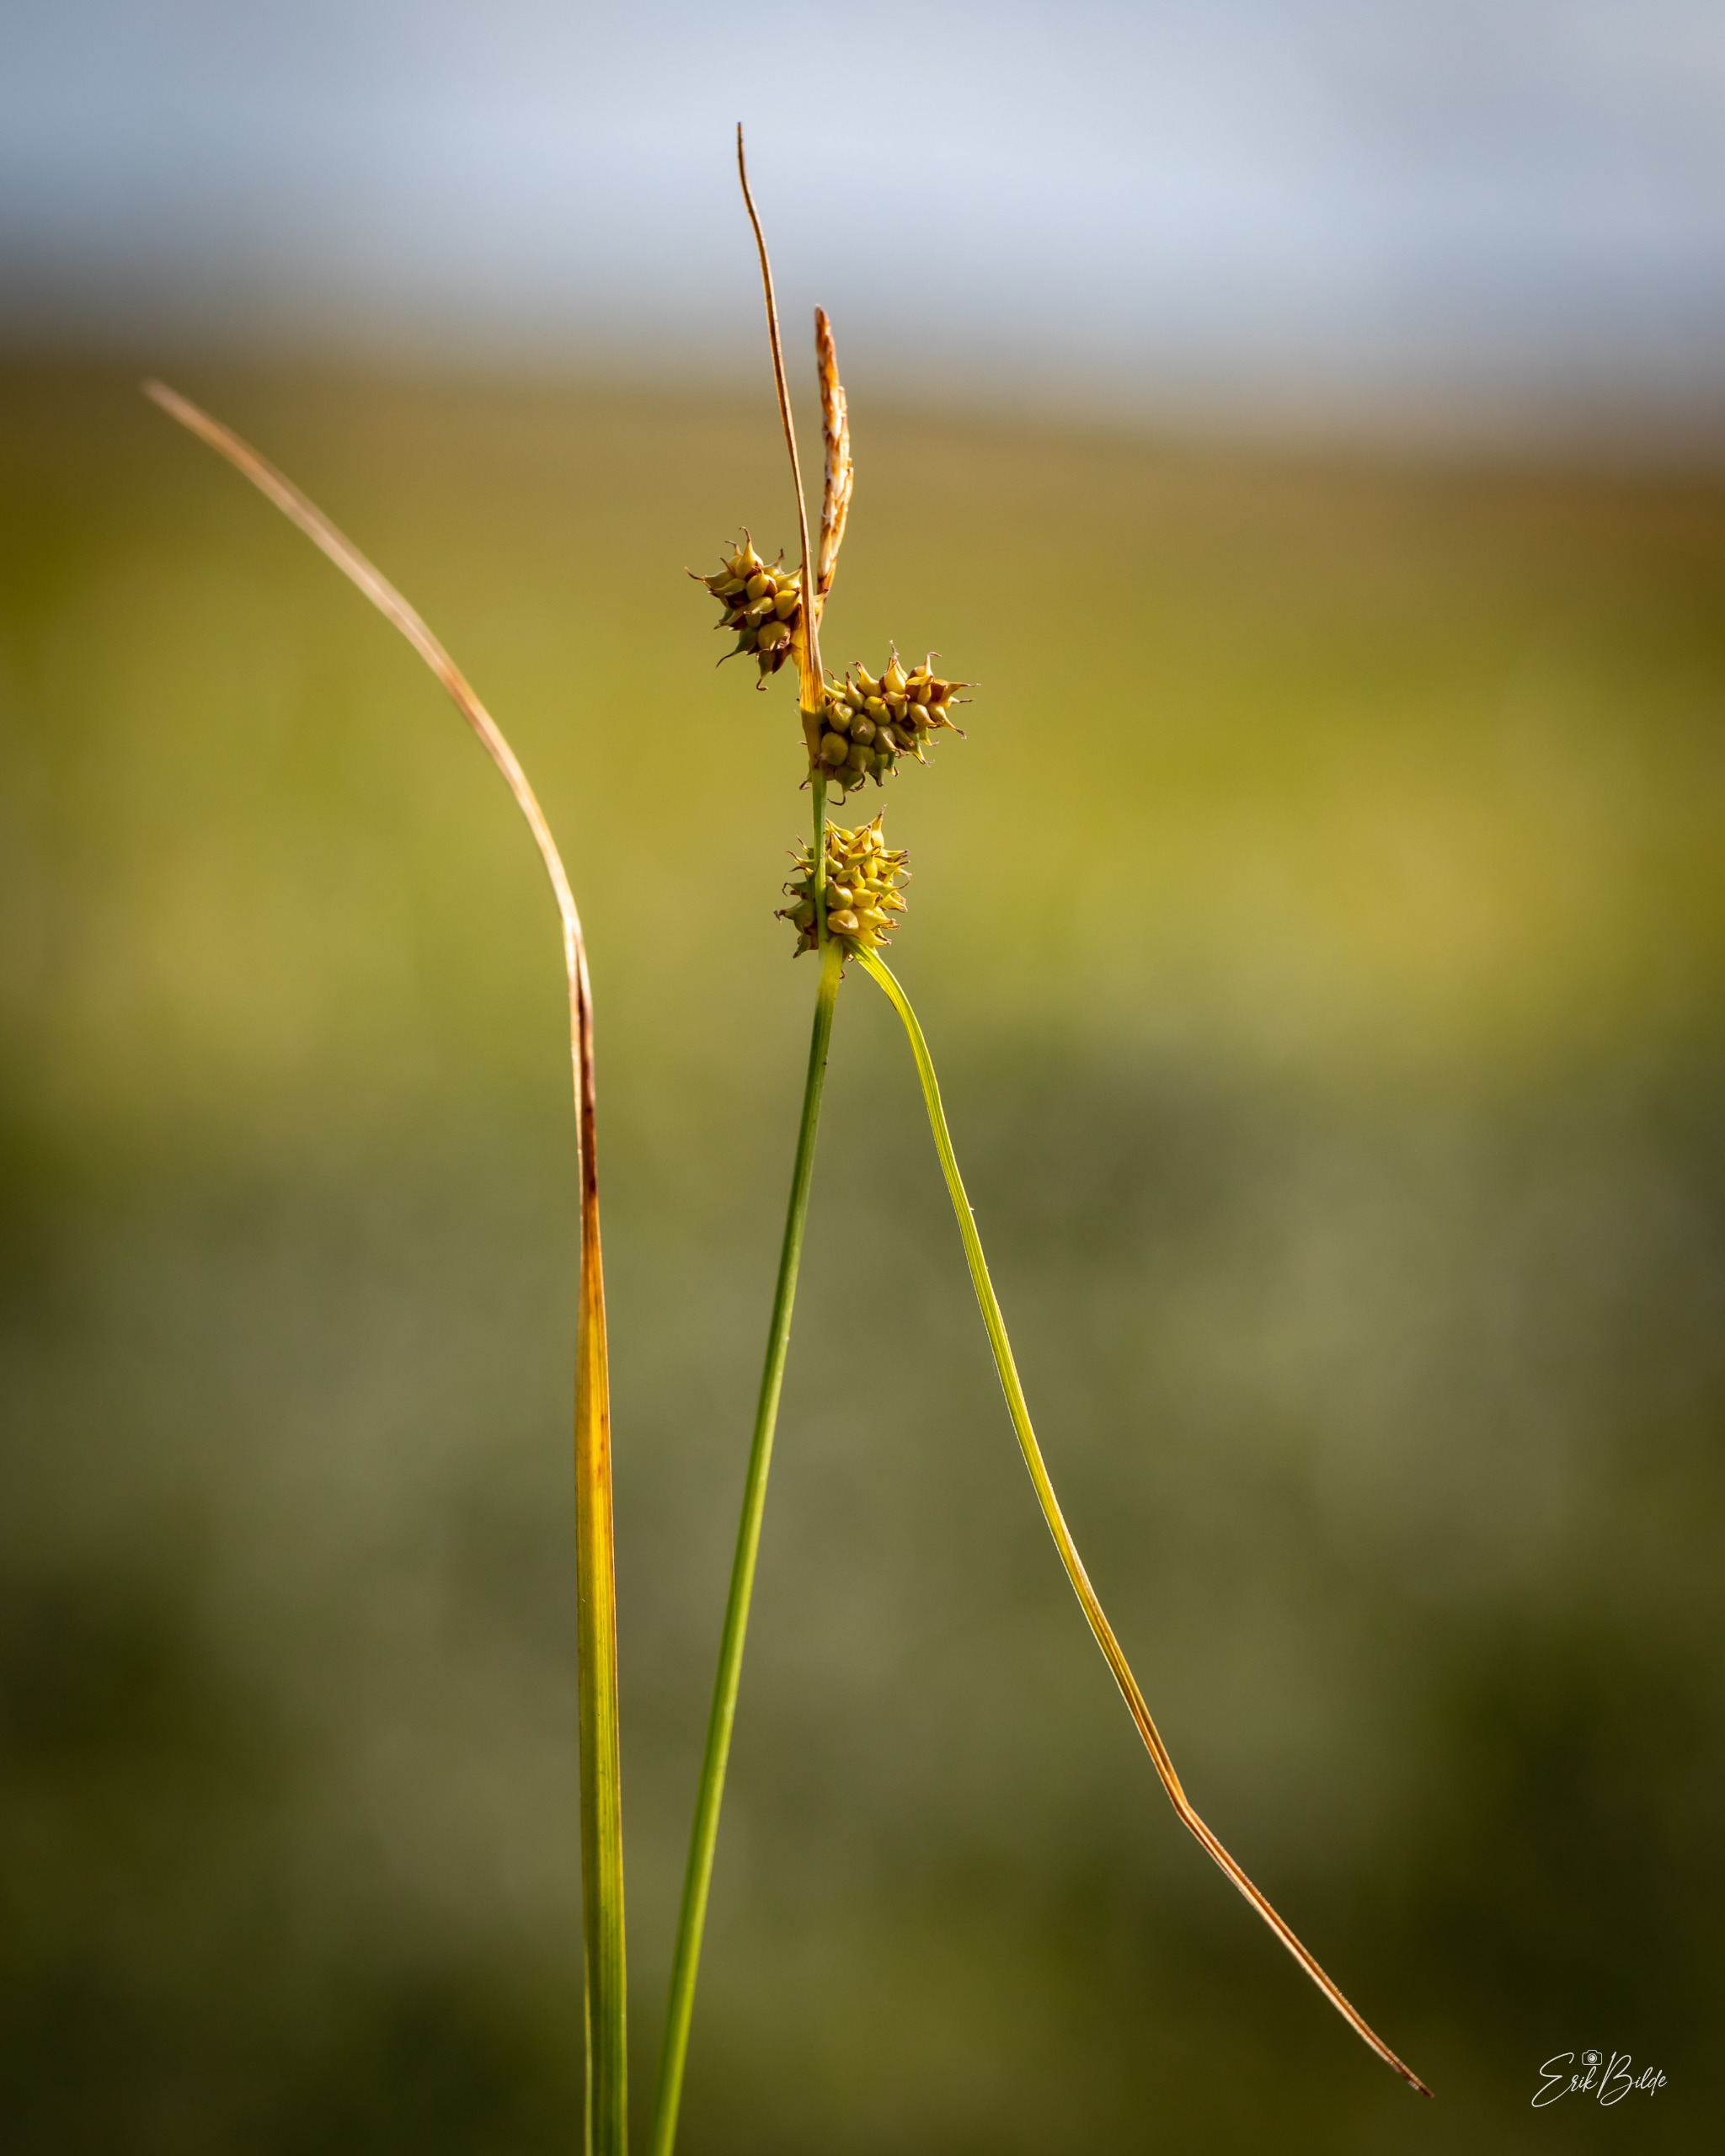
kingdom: Plantae
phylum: Tracheophyta
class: Liliopsida
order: Poales
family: Cyperaceae
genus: Carex
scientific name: Carex oederi
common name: Dværg-star
